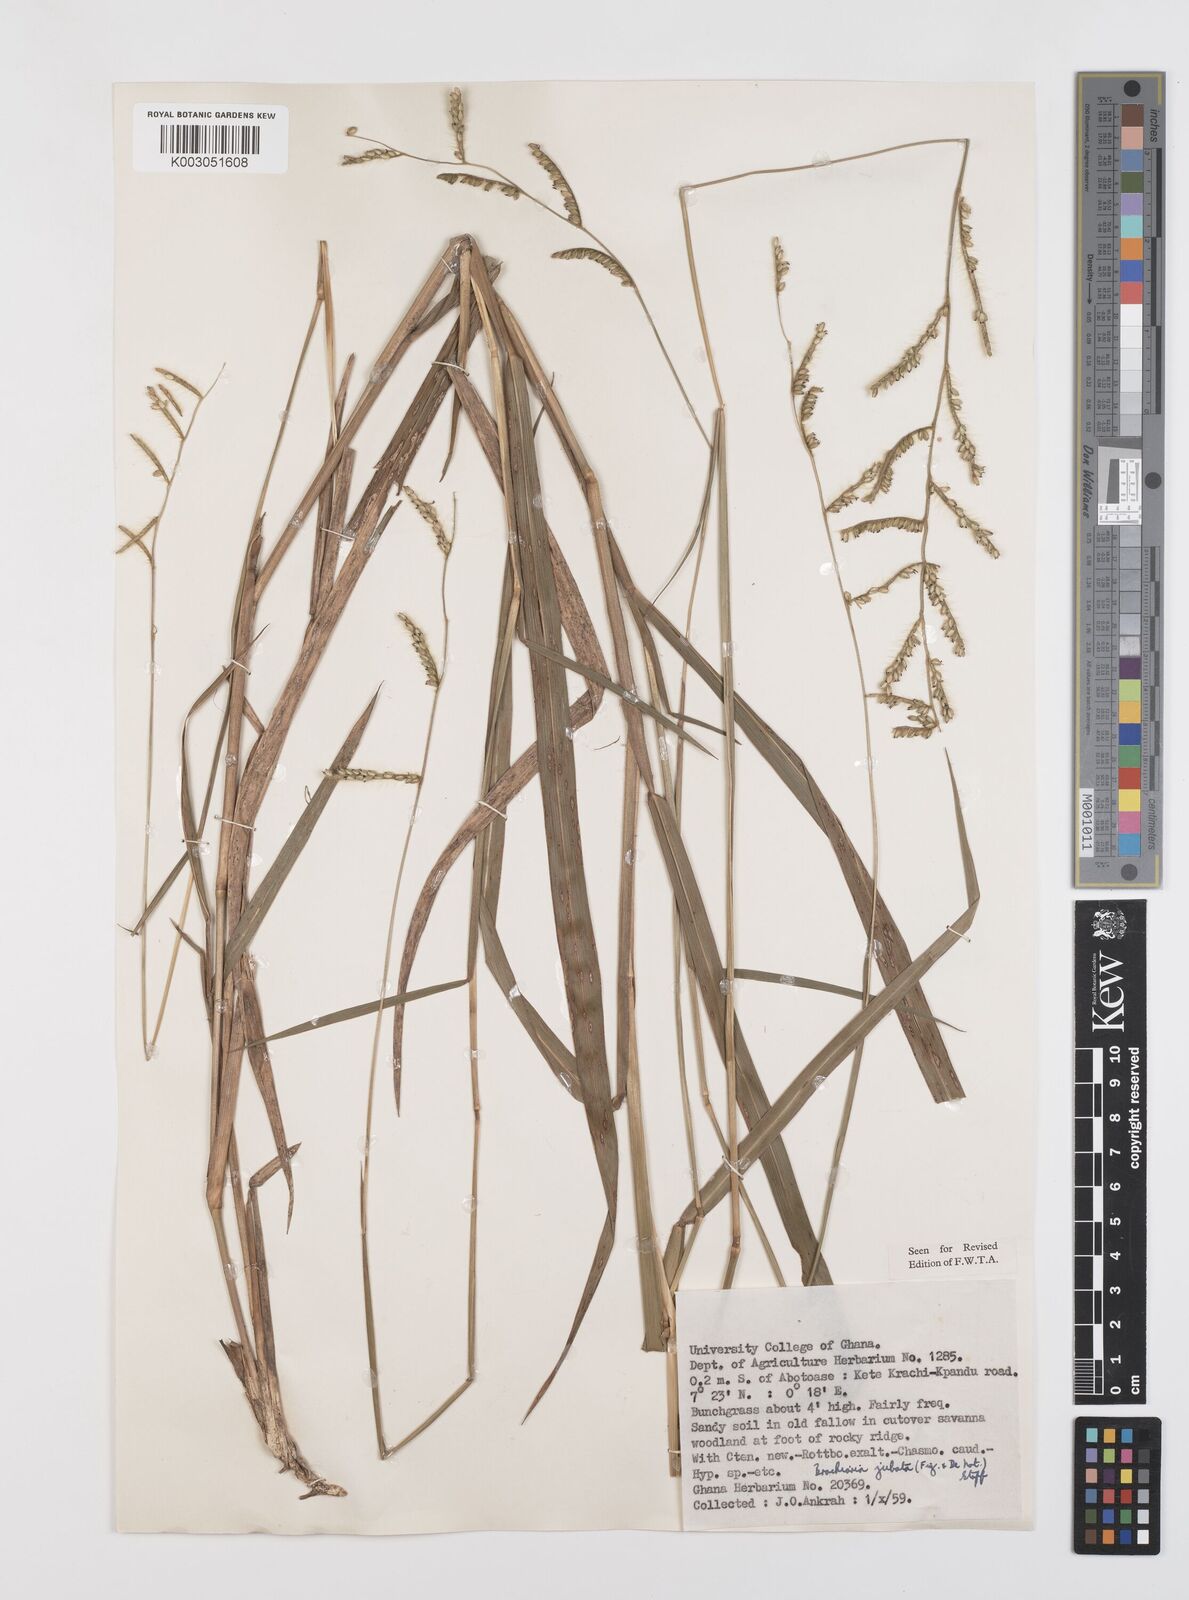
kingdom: Plantae
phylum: Tracheophyta
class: Liliopsida
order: Poales
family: Poaceae
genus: Urochloa
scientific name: Urochloa jubata
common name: Buffalograss
